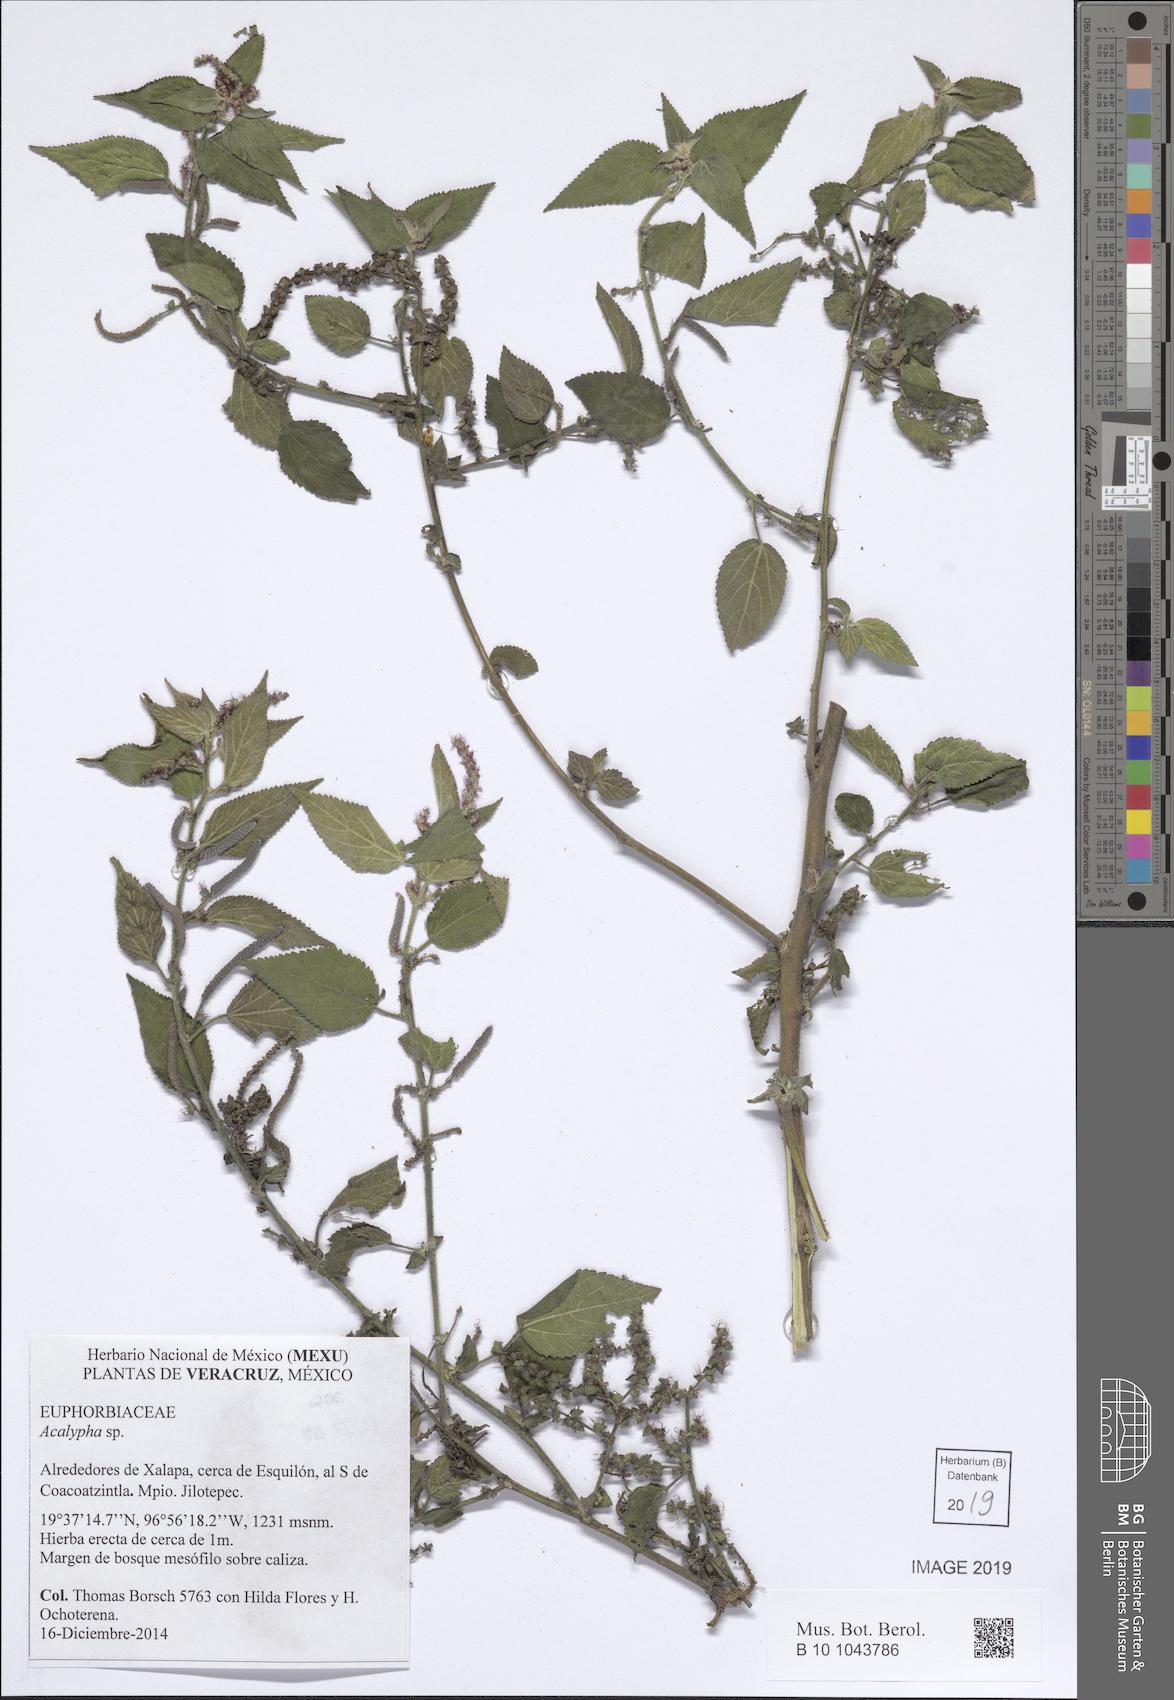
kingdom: Plantae
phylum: Tracheophyta
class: Magnoliopsida
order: Malpighiales
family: Euphorbiaceae
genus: Acalypha
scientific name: Acalypha
